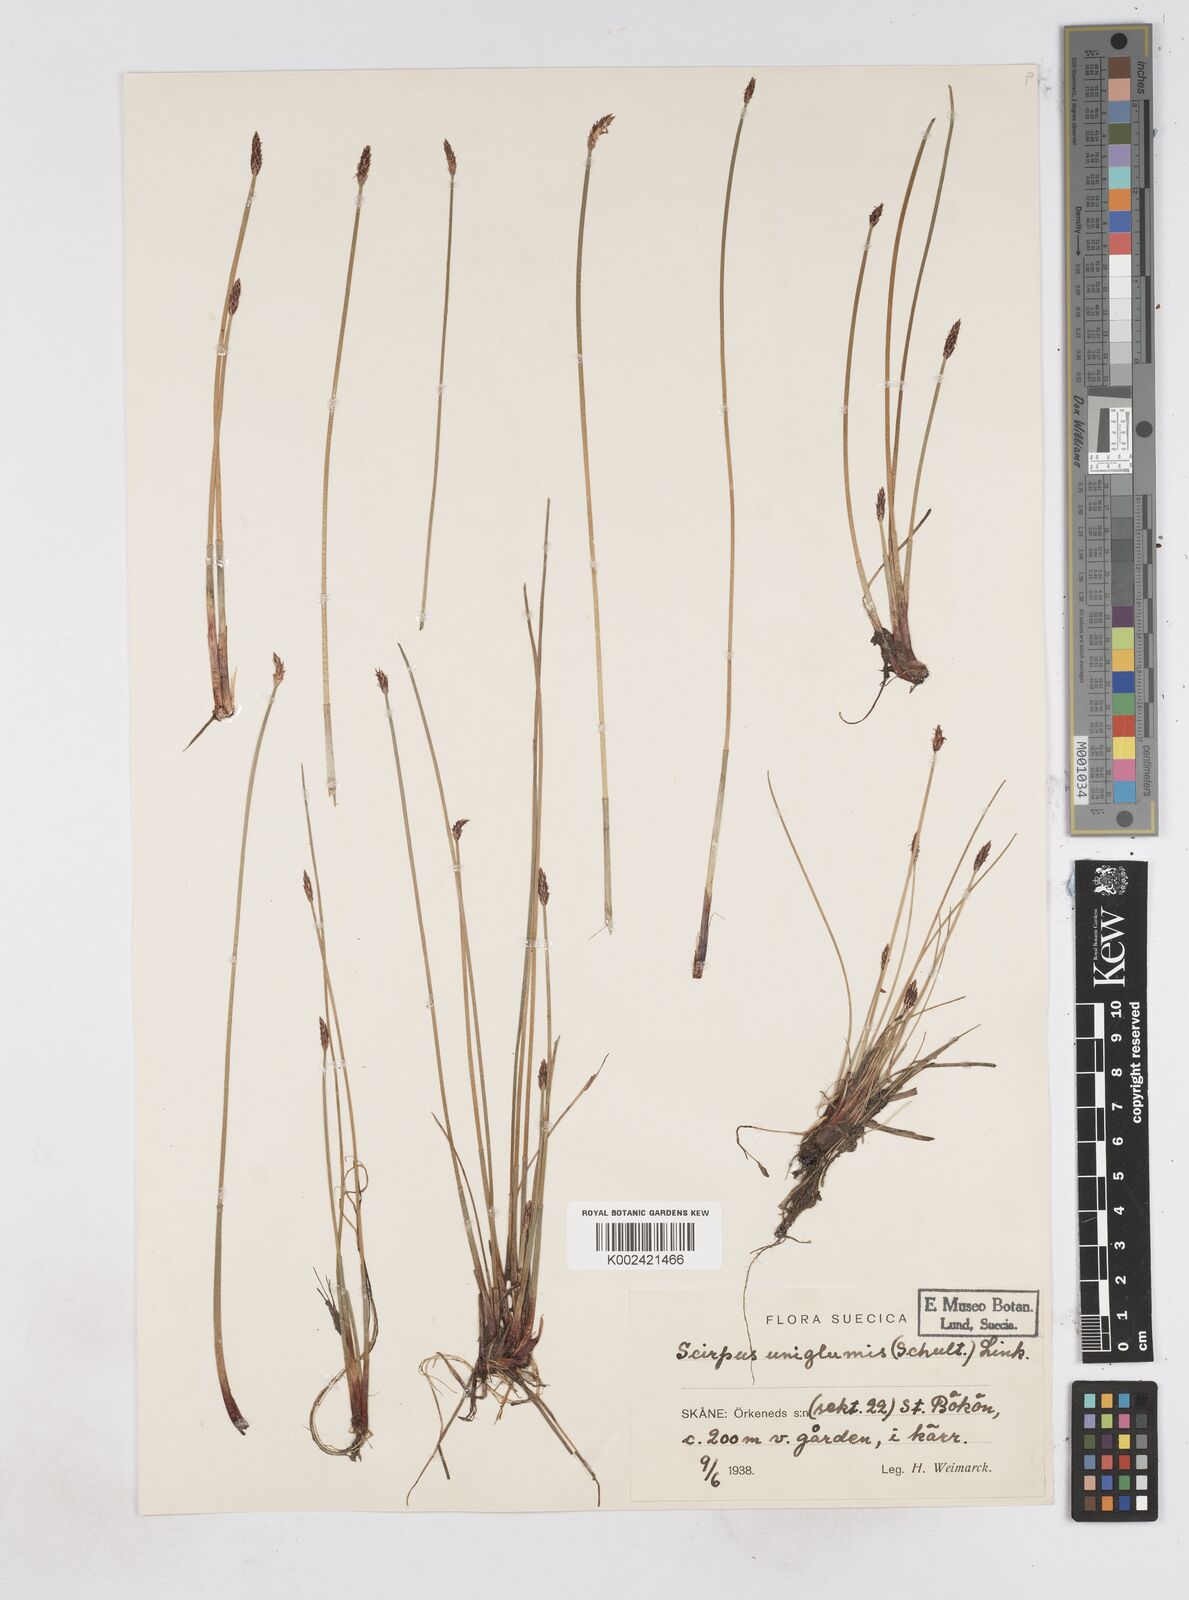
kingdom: Plantae
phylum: Tracheophyta
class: Liliopsida
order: Poales
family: Cyperaceae
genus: Eleocharis
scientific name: Eleocharis uniglumis
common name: Slender spike-rush
